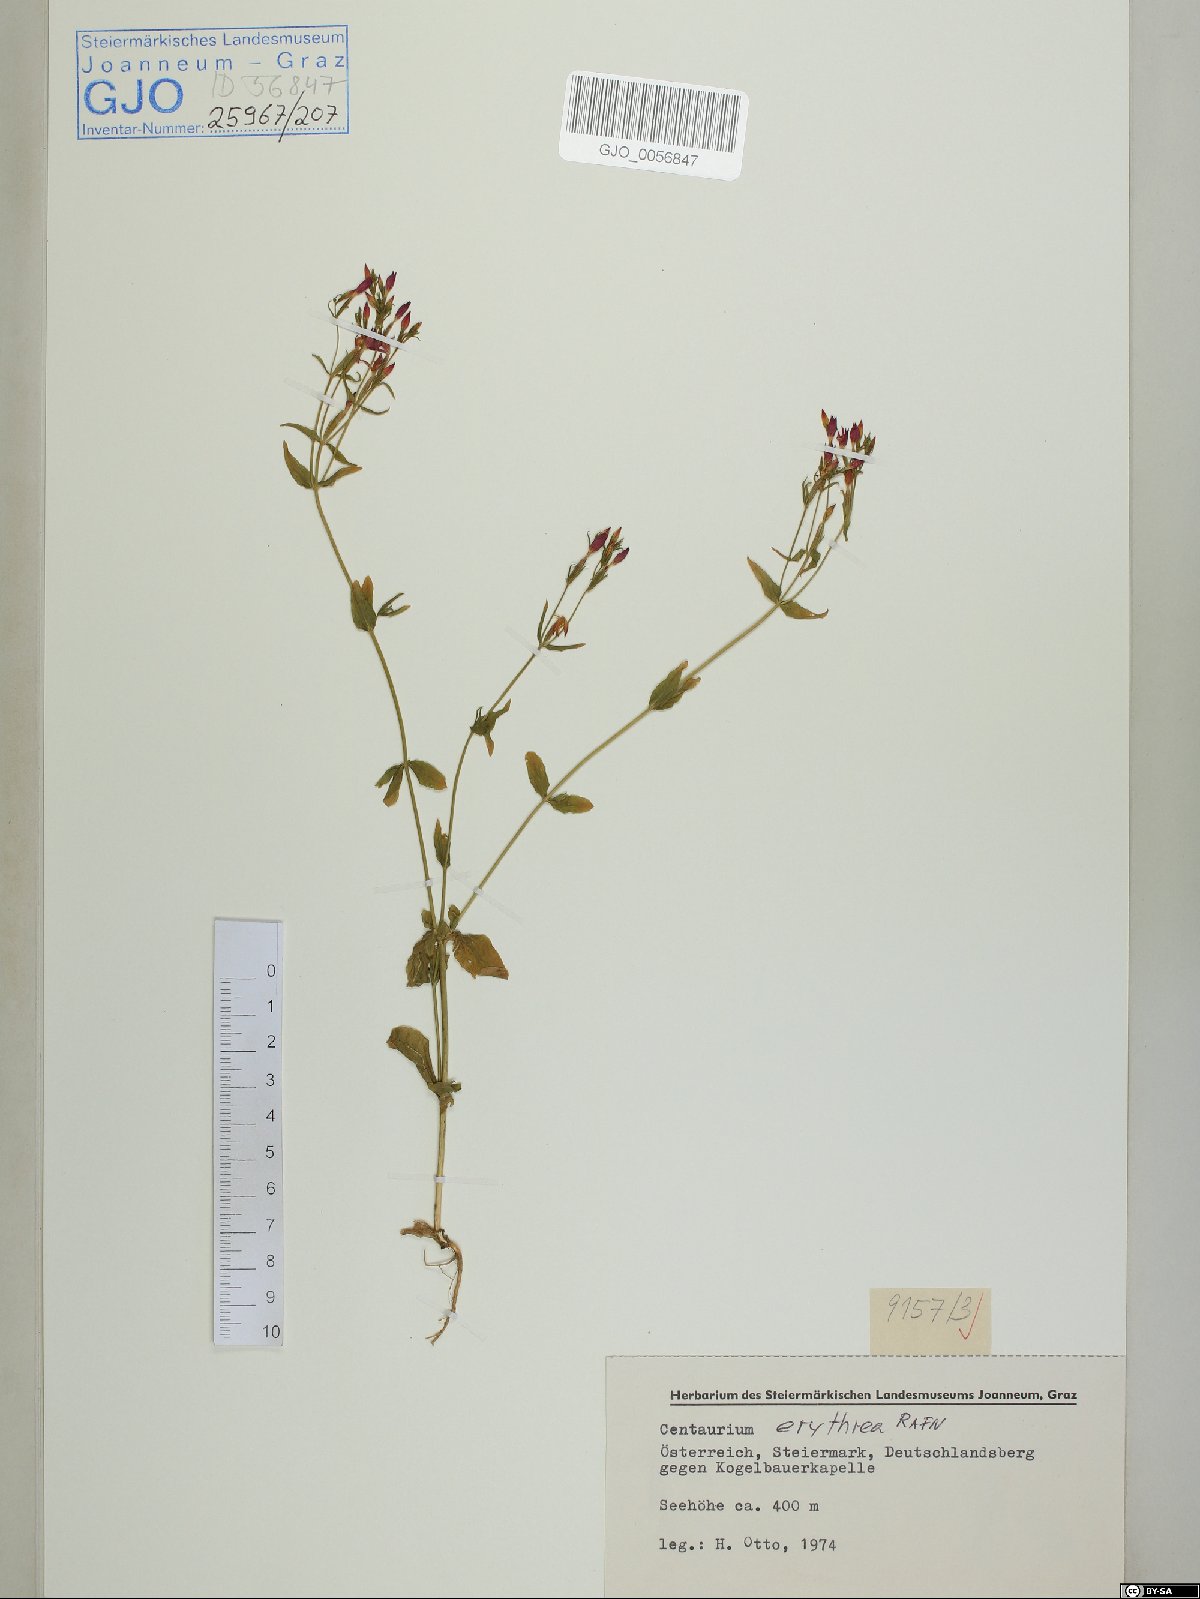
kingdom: Plantae
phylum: Tracheophyta
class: Magnoliopsida
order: Gentianales
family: Gentianaceae
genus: Centaurium
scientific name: Centaurium erythraea
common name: Common centaury
